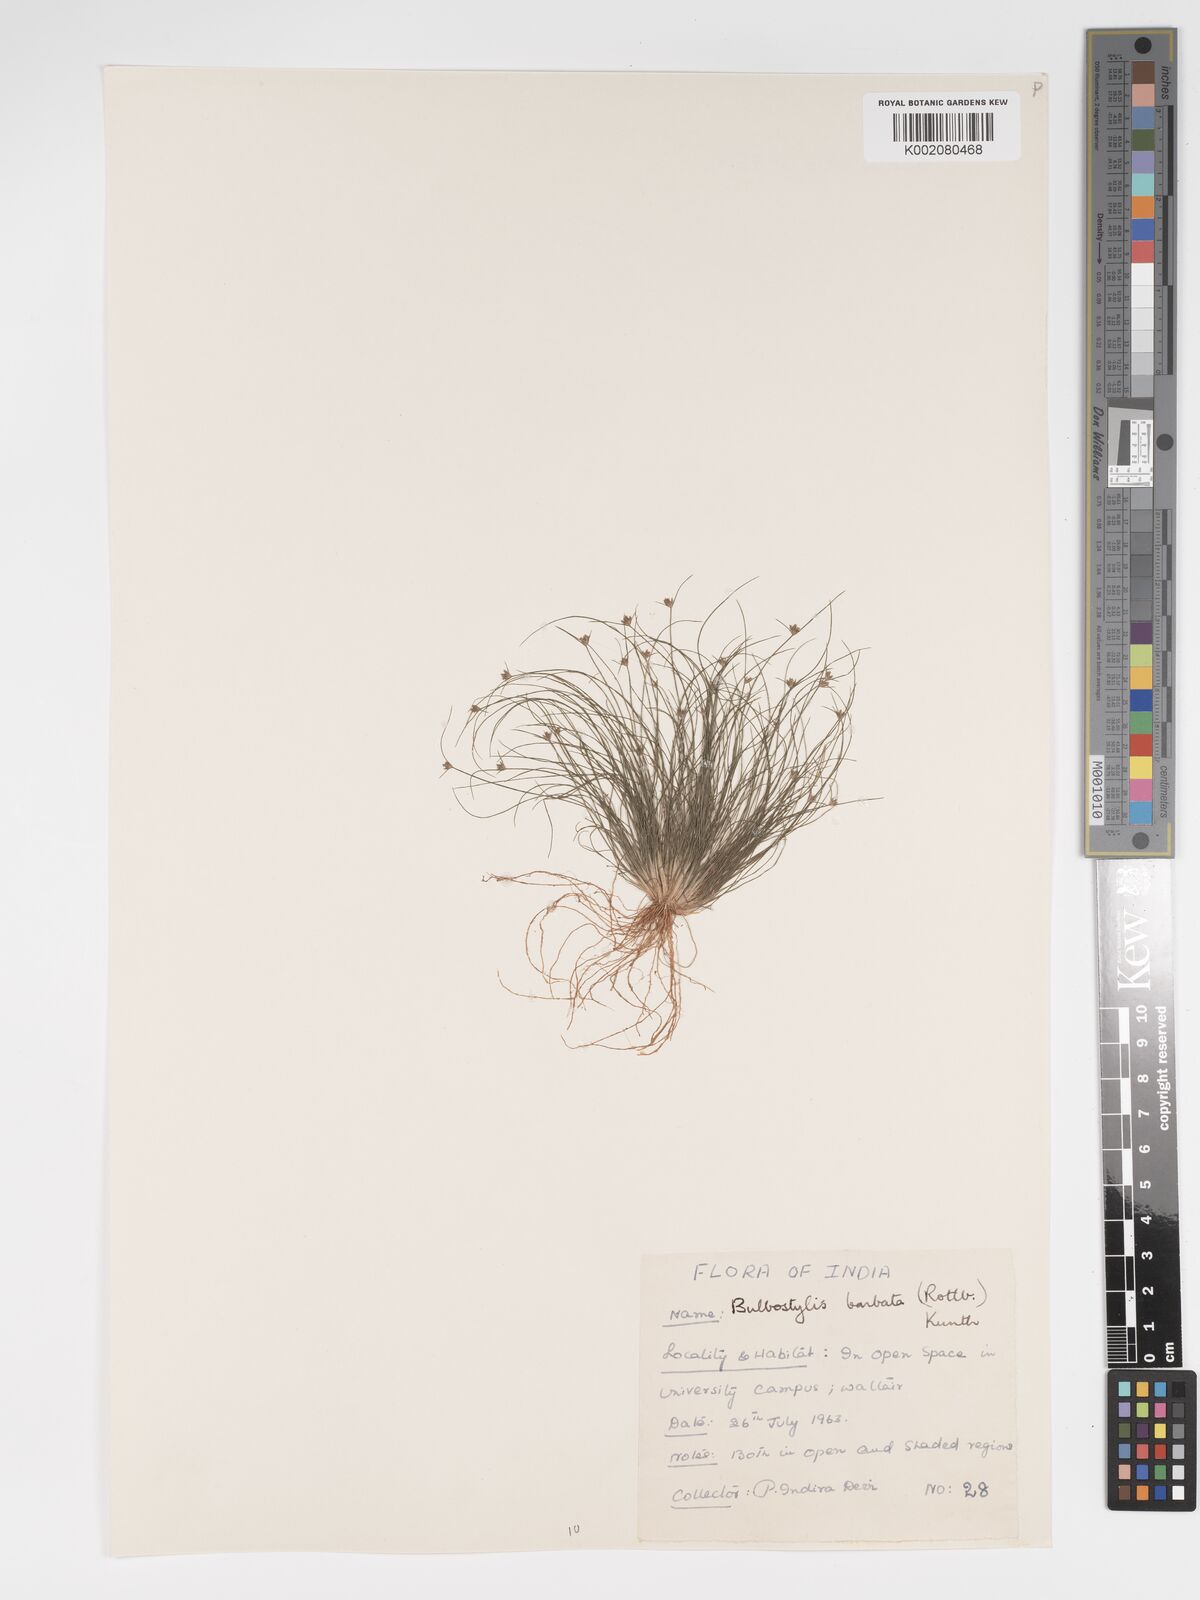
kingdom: Plantae
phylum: Tracheophyta
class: Liliopsida
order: Poales
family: Cyperaceae
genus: Bulbostylis
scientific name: Bulbostylis barbata
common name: Watergrass
